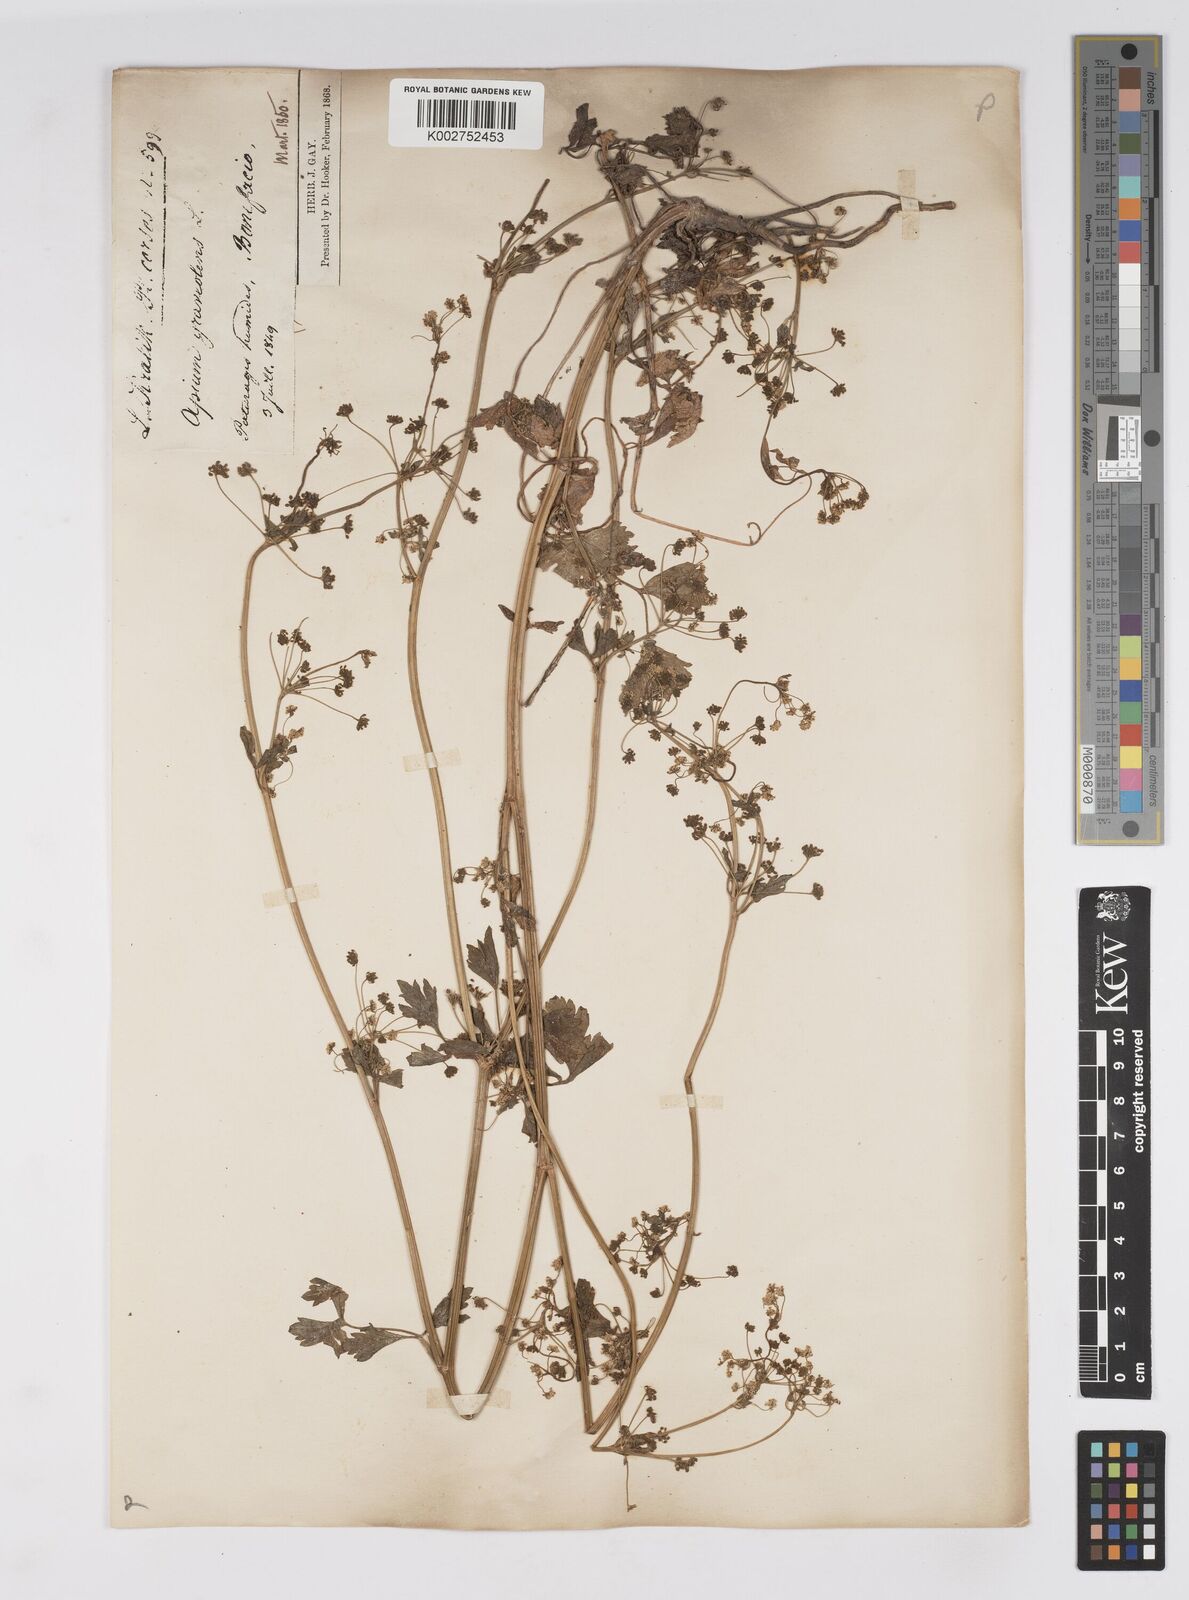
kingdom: Plantae
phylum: Tracheophyta
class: Magnoliopsida
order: Apiales
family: Apiaceae
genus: Apium
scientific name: Apium graveolens
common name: Wild celery
